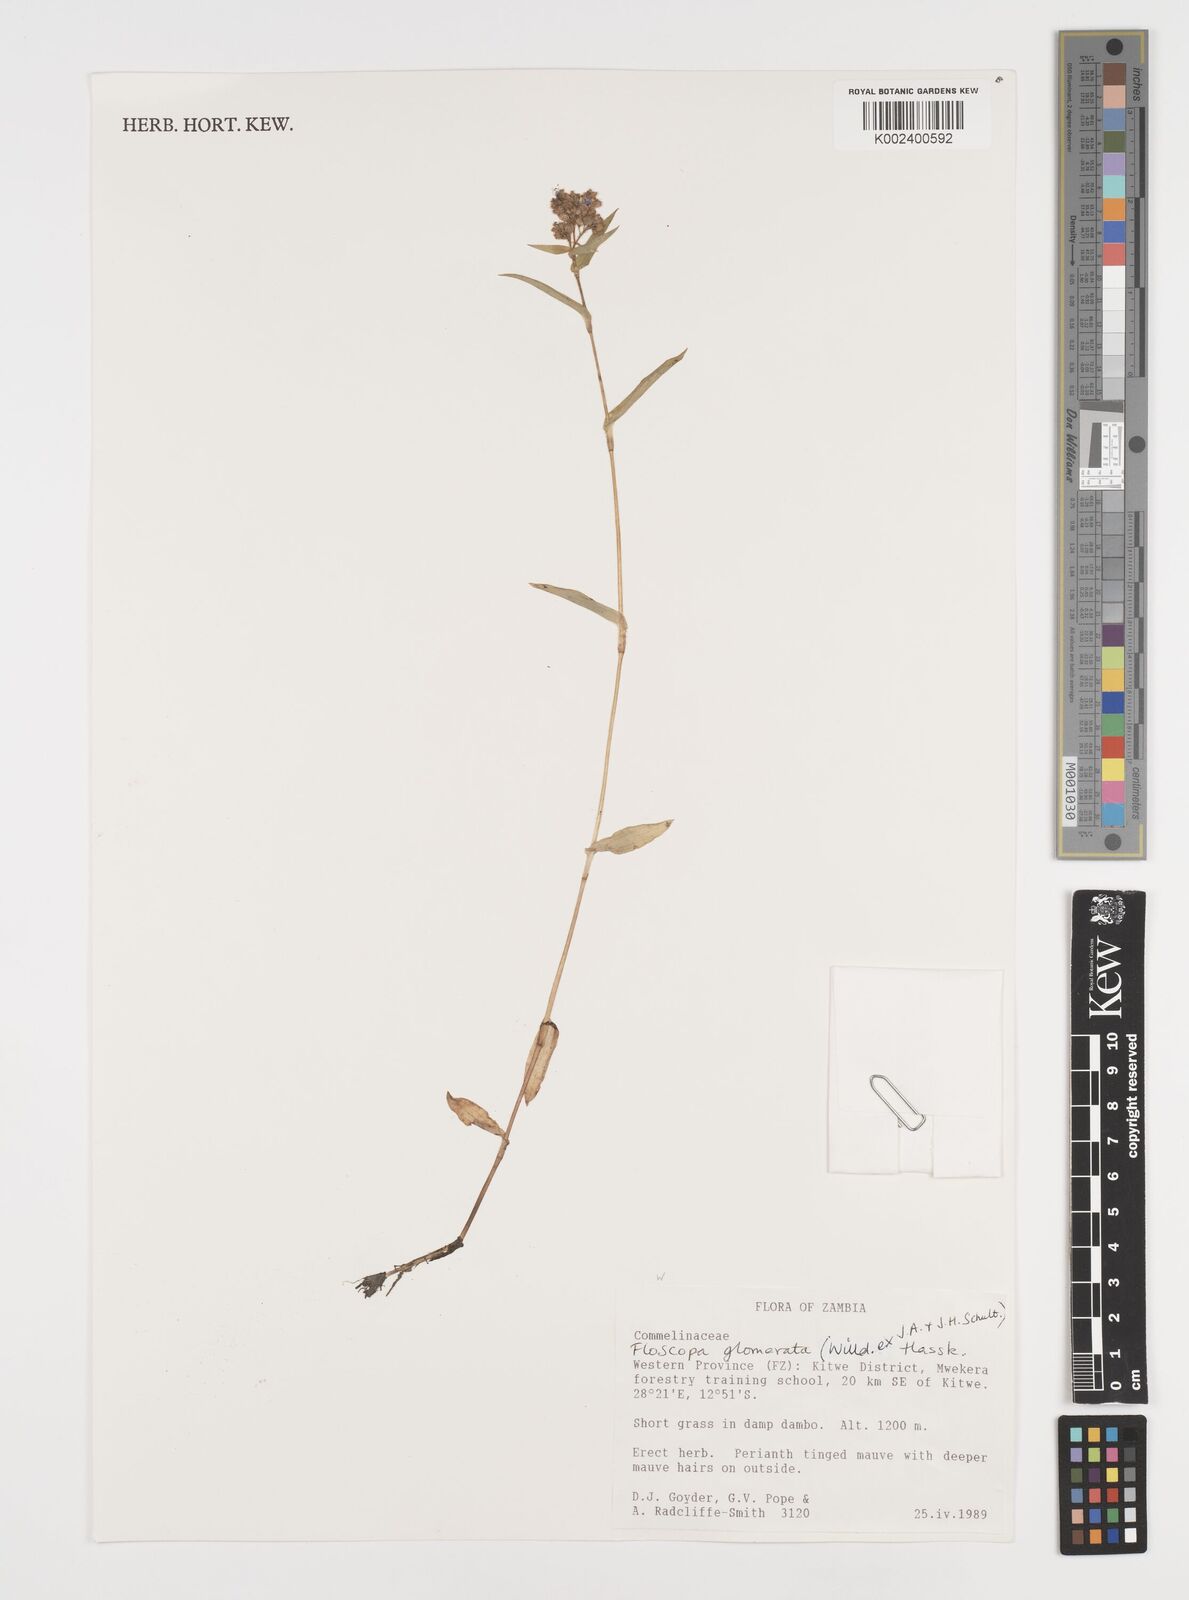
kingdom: Plantae
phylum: Tracheophyta
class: Liliopsida
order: Commelinales
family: Commelinaceae
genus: Floscopa
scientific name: Floscopa glomerata
